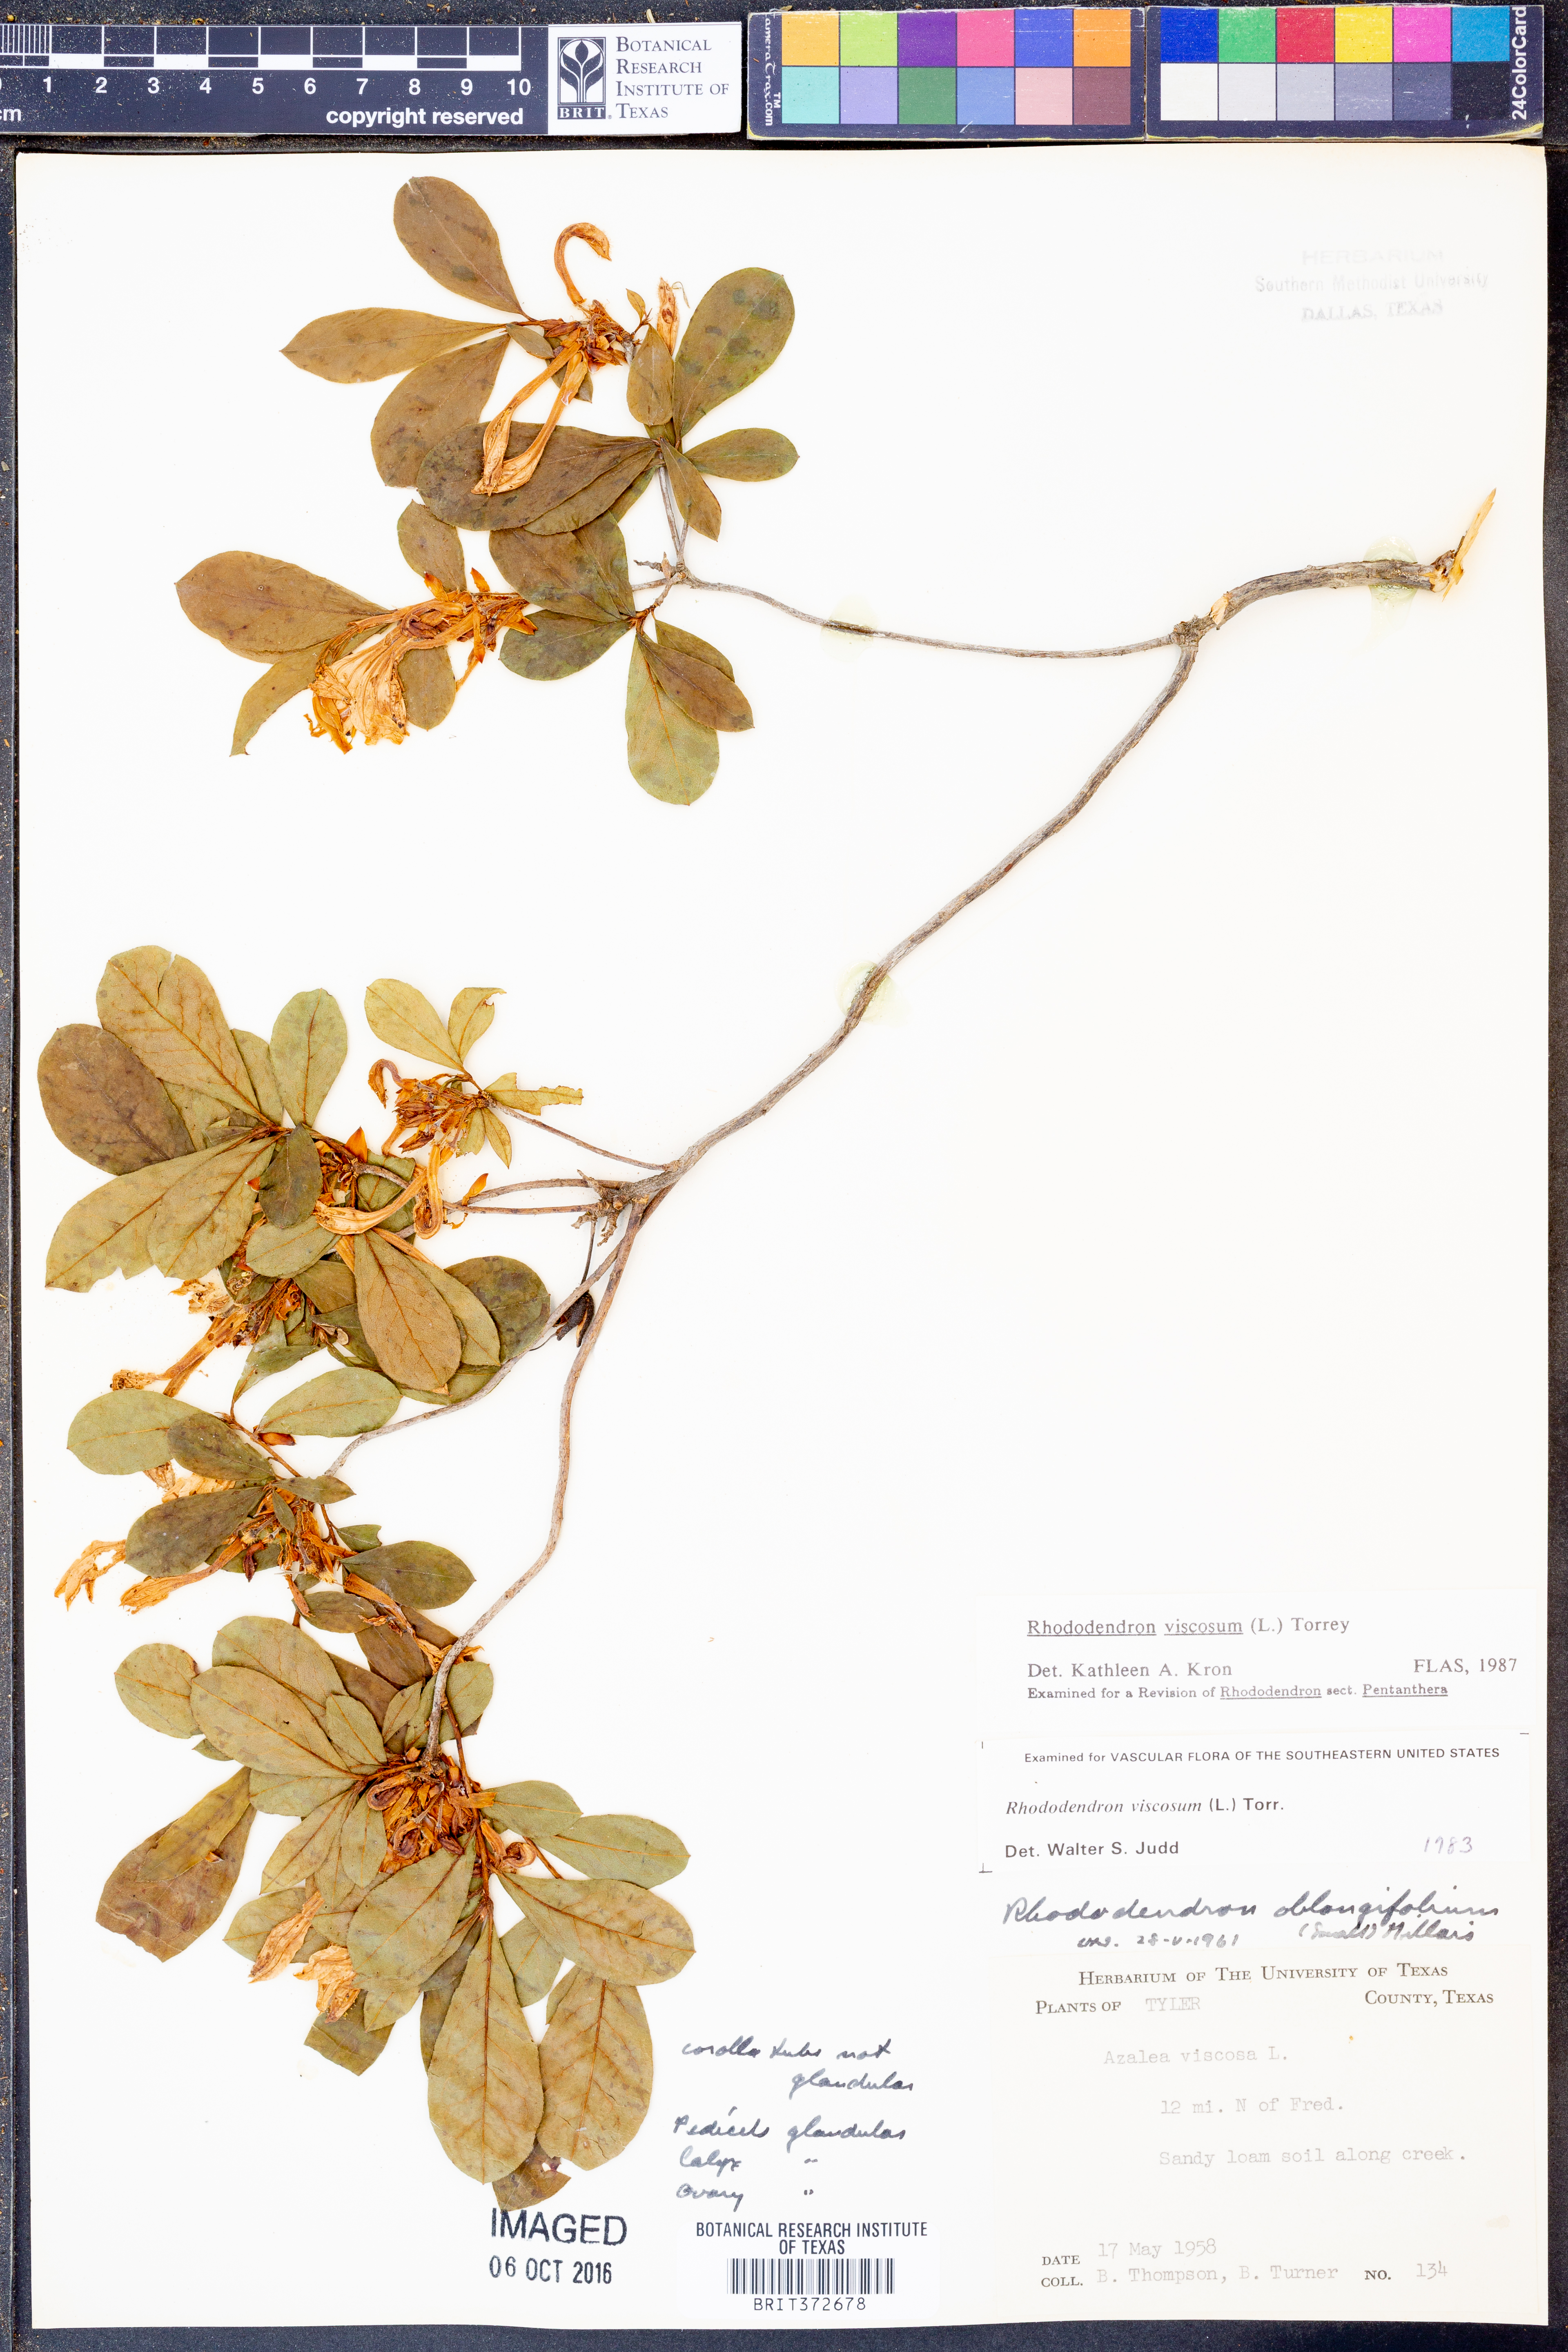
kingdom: Plantae
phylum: Tracheophyta
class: Magnoliopsida
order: Ericales
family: Ericaceae
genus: Rhododendron
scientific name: Rhododendron viscosum
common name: Clammy azalea
